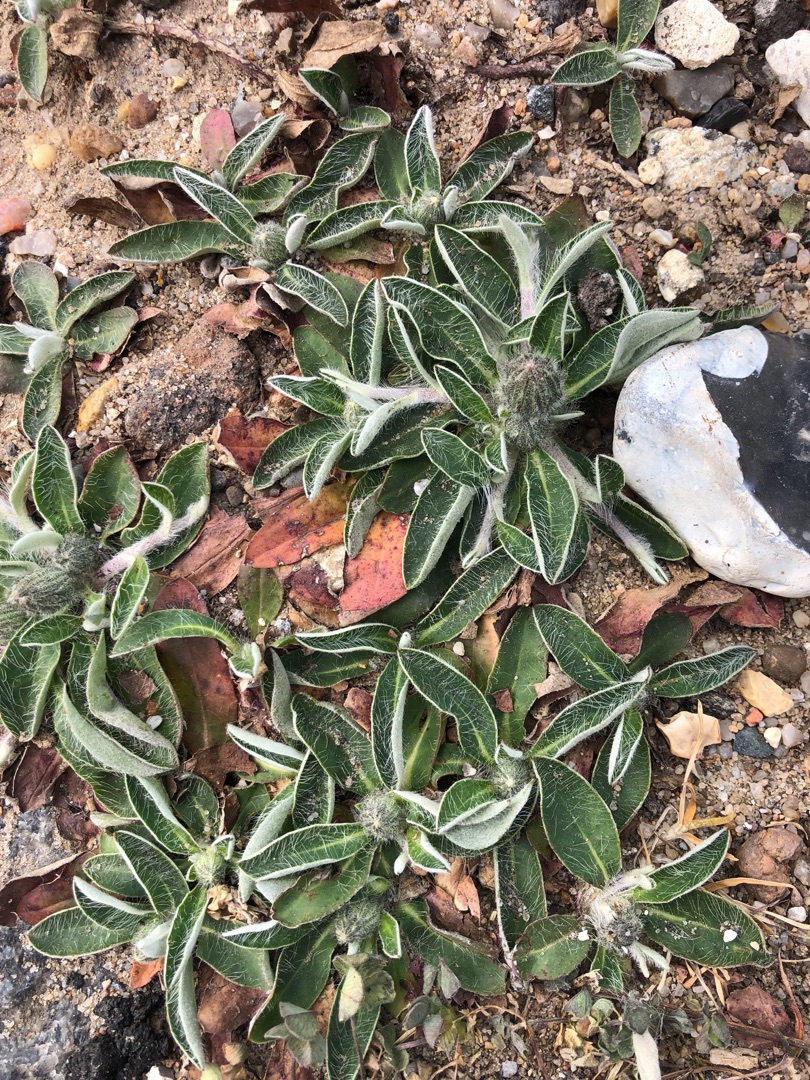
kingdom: Plantae
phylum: Tracheophyta
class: Magnoliopsida
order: Asterales
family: Asteraceae
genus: Pilosella
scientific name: Pilosella officinarum
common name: Håret høgeurt
